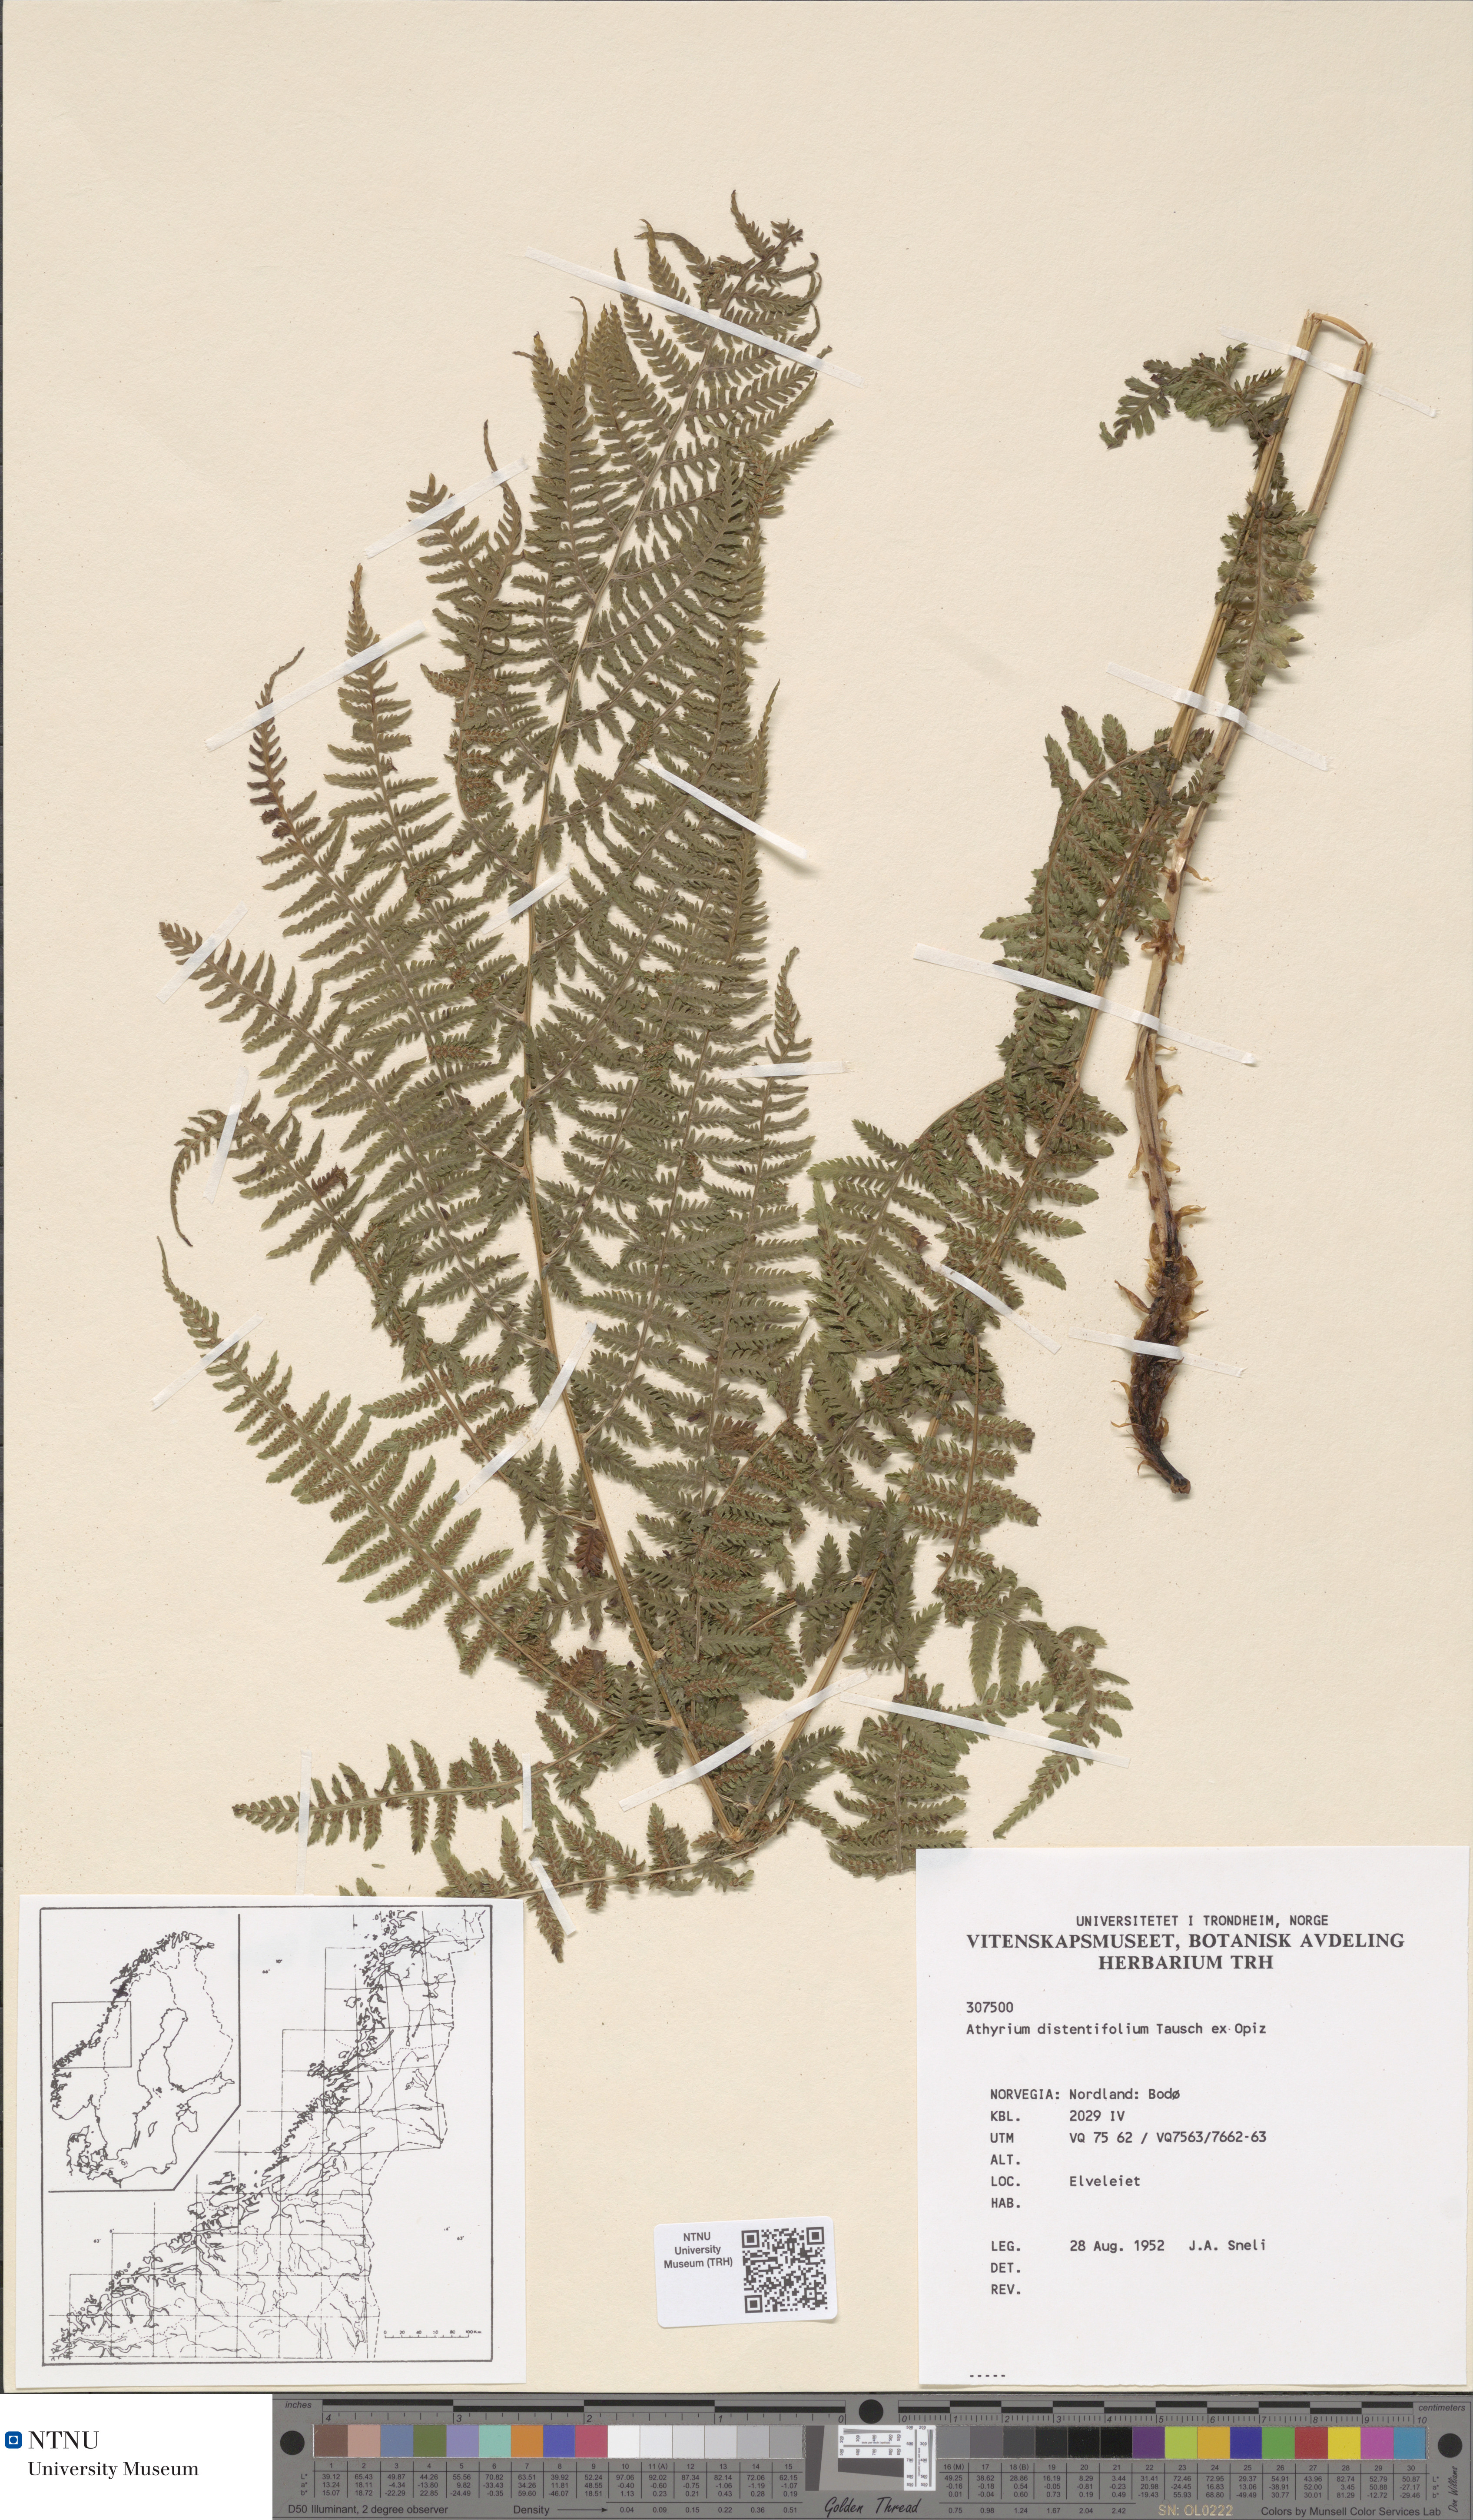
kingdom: Plantae
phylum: Tracheophyta
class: Polypodiopsida
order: Polypodiales
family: Athyriaceae
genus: Pseudathyrium
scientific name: Pseudathyrium alpestre
